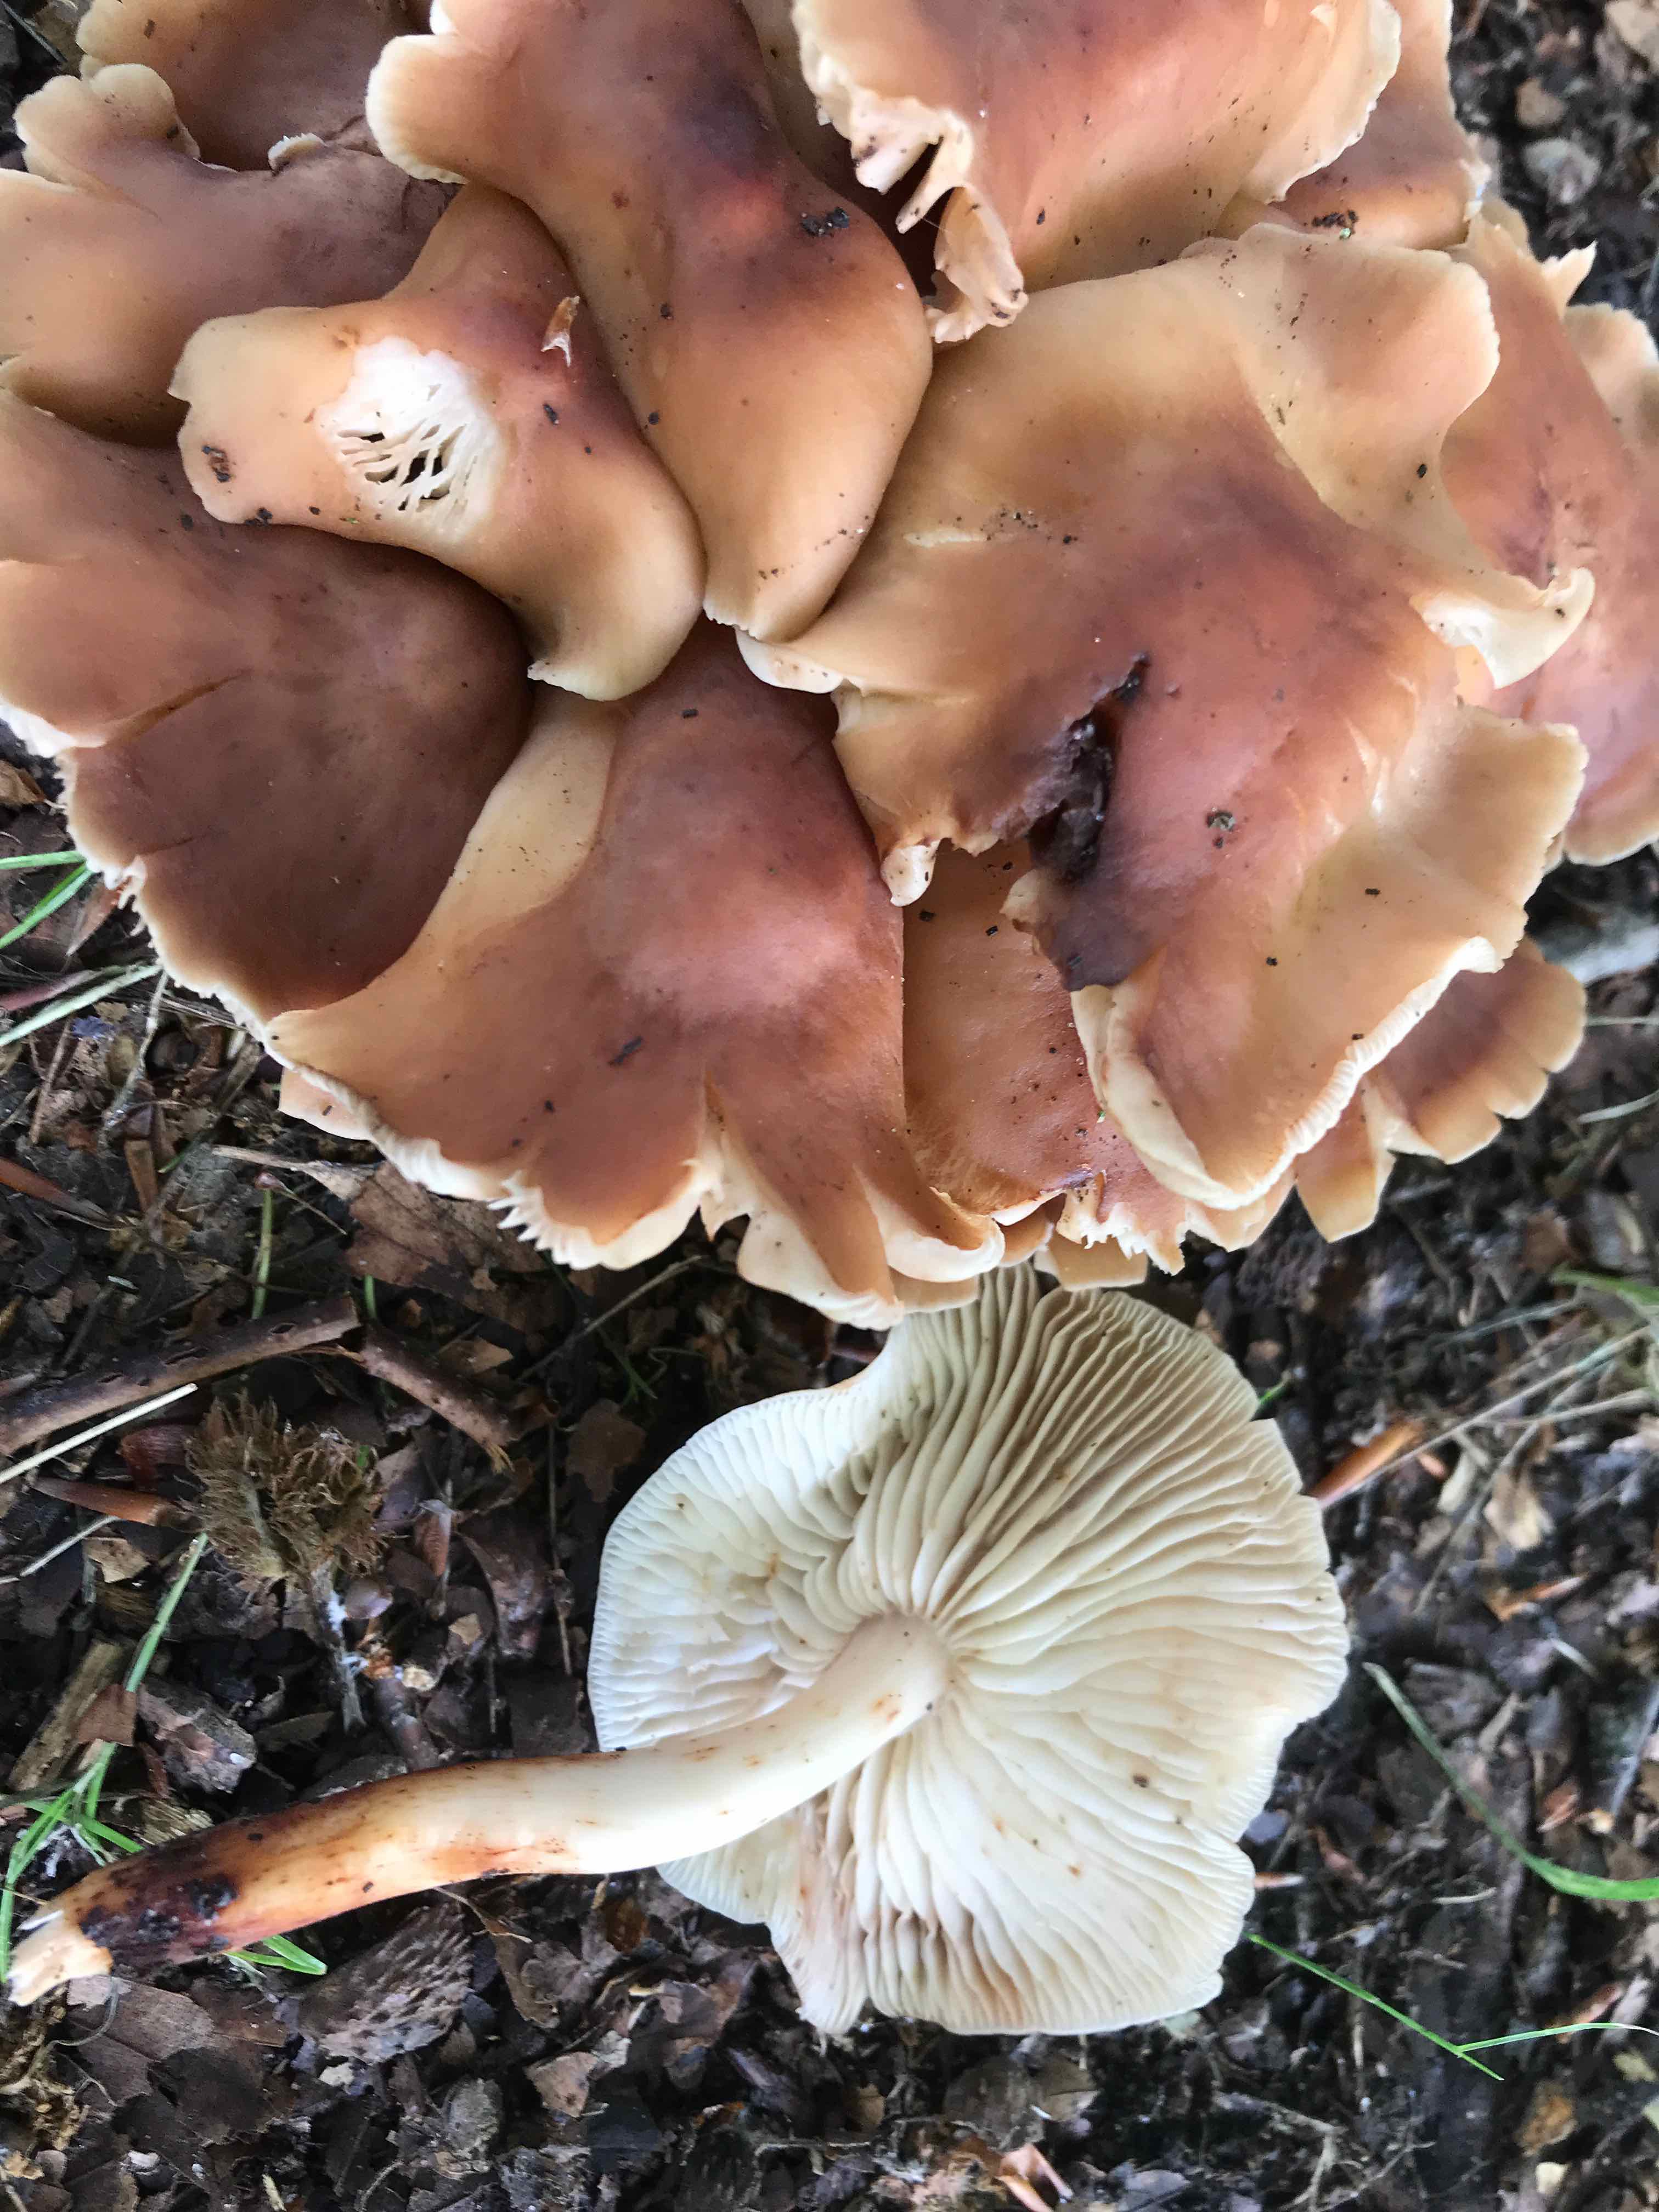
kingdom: Fungi
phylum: Basidiomycota
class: Agaricomycetes
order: Agaricales
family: Omphalotaceae
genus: Gymnopus
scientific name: Gymnopus fusipes
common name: tenstokket fladhat
